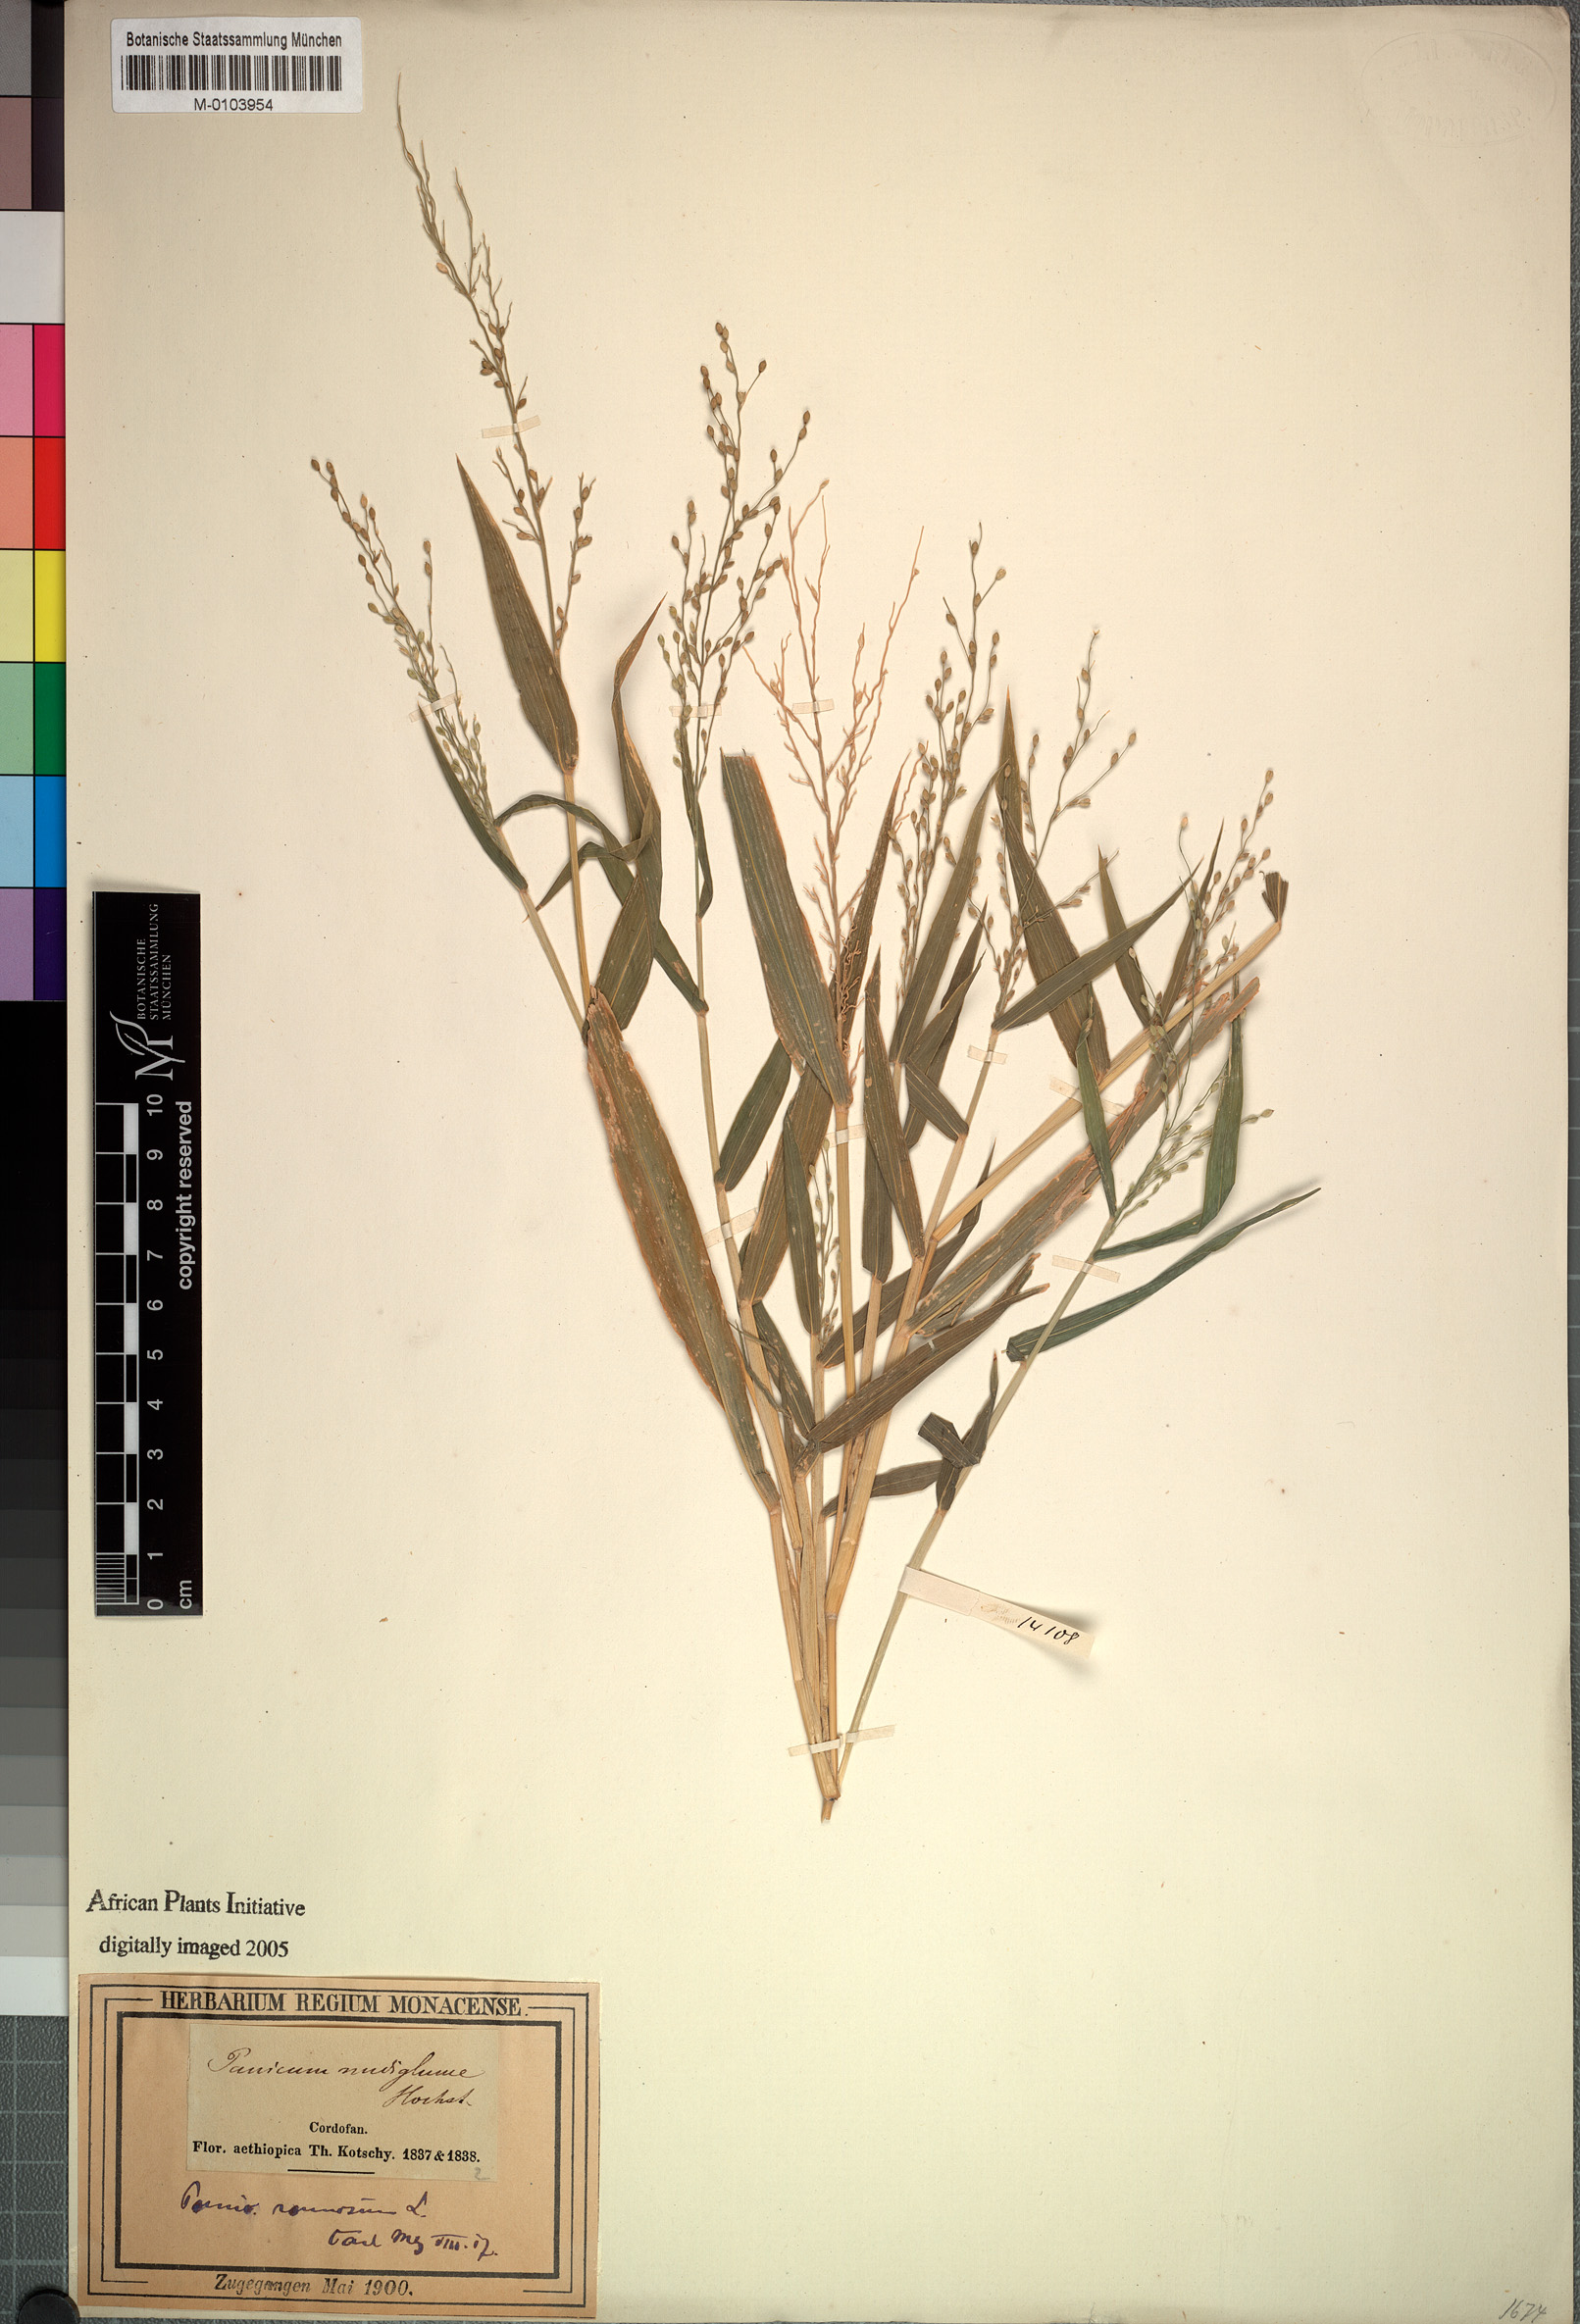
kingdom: Plantae
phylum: Tracheophyta
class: Liliopsida
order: Poales
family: Poaceae
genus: Urochloa
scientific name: Urochloa deflexa
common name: Guinea millet
